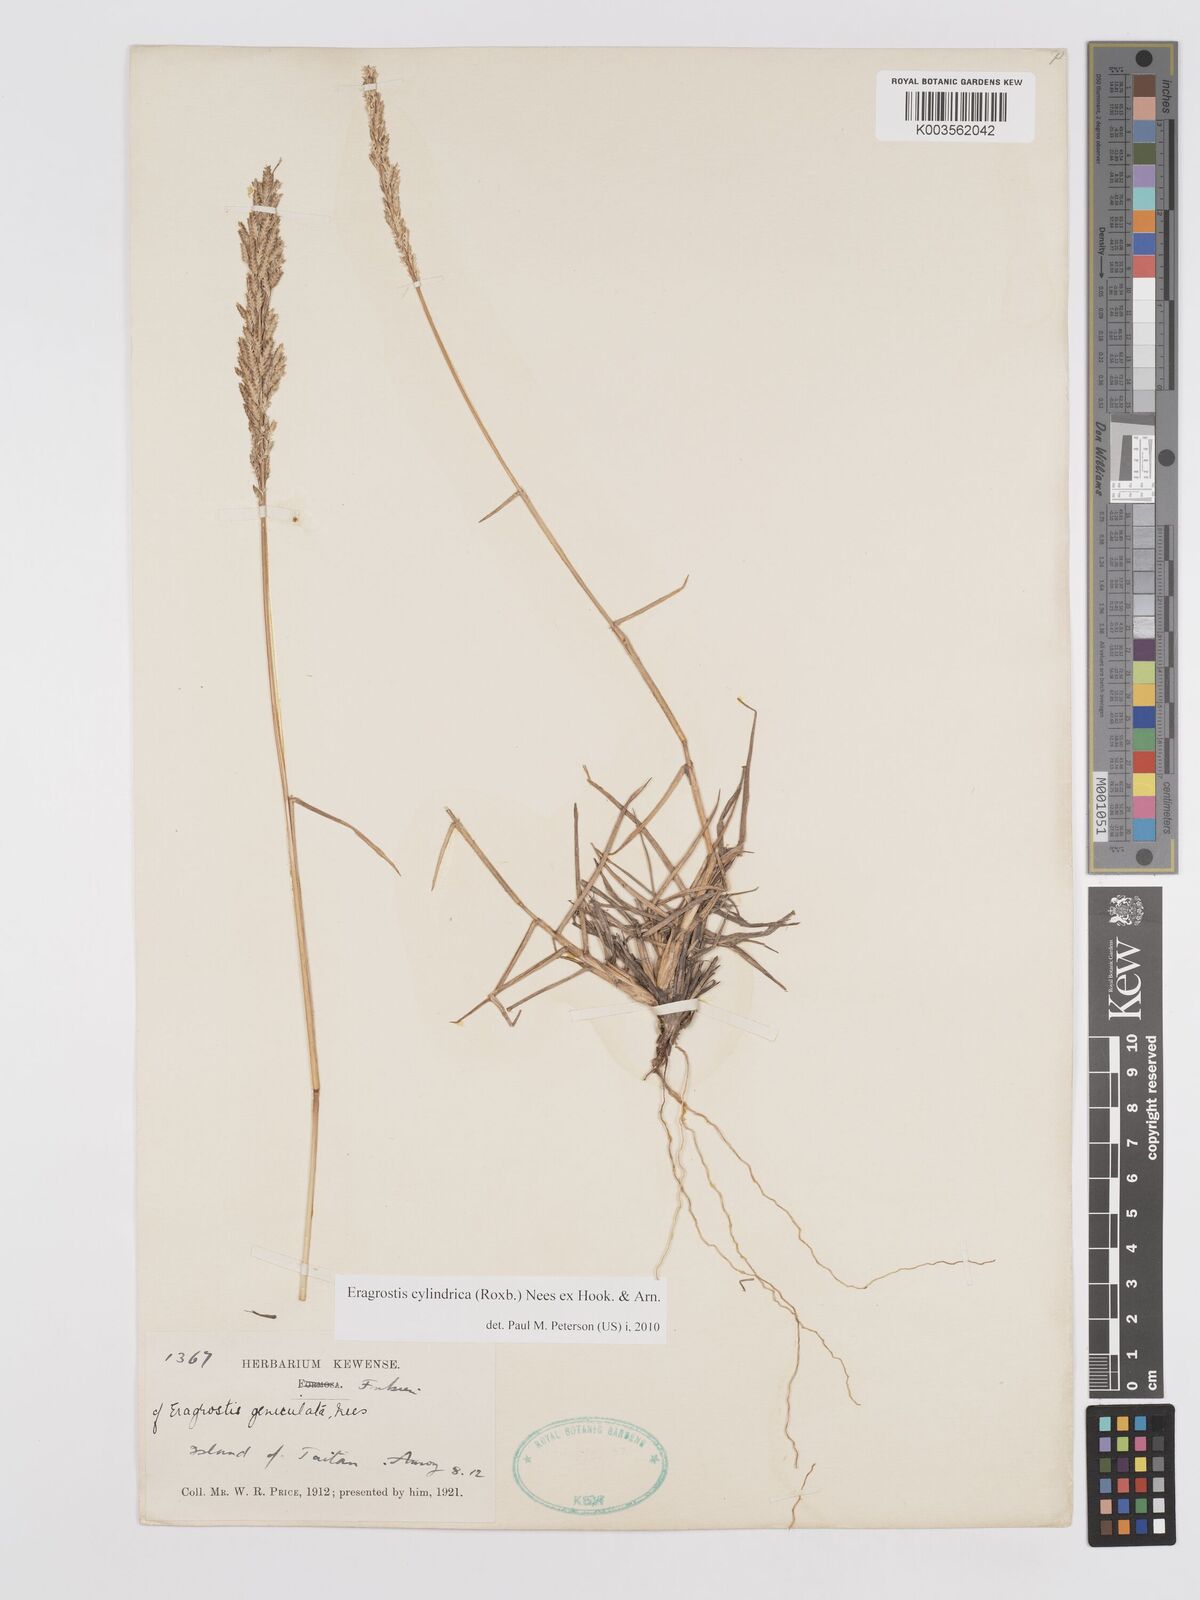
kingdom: Plantae
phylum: Tracheophyta
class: Liliopsida
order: Poales
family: Poaceae
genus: Eragrostis
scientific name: Eragrostis cylindrica
